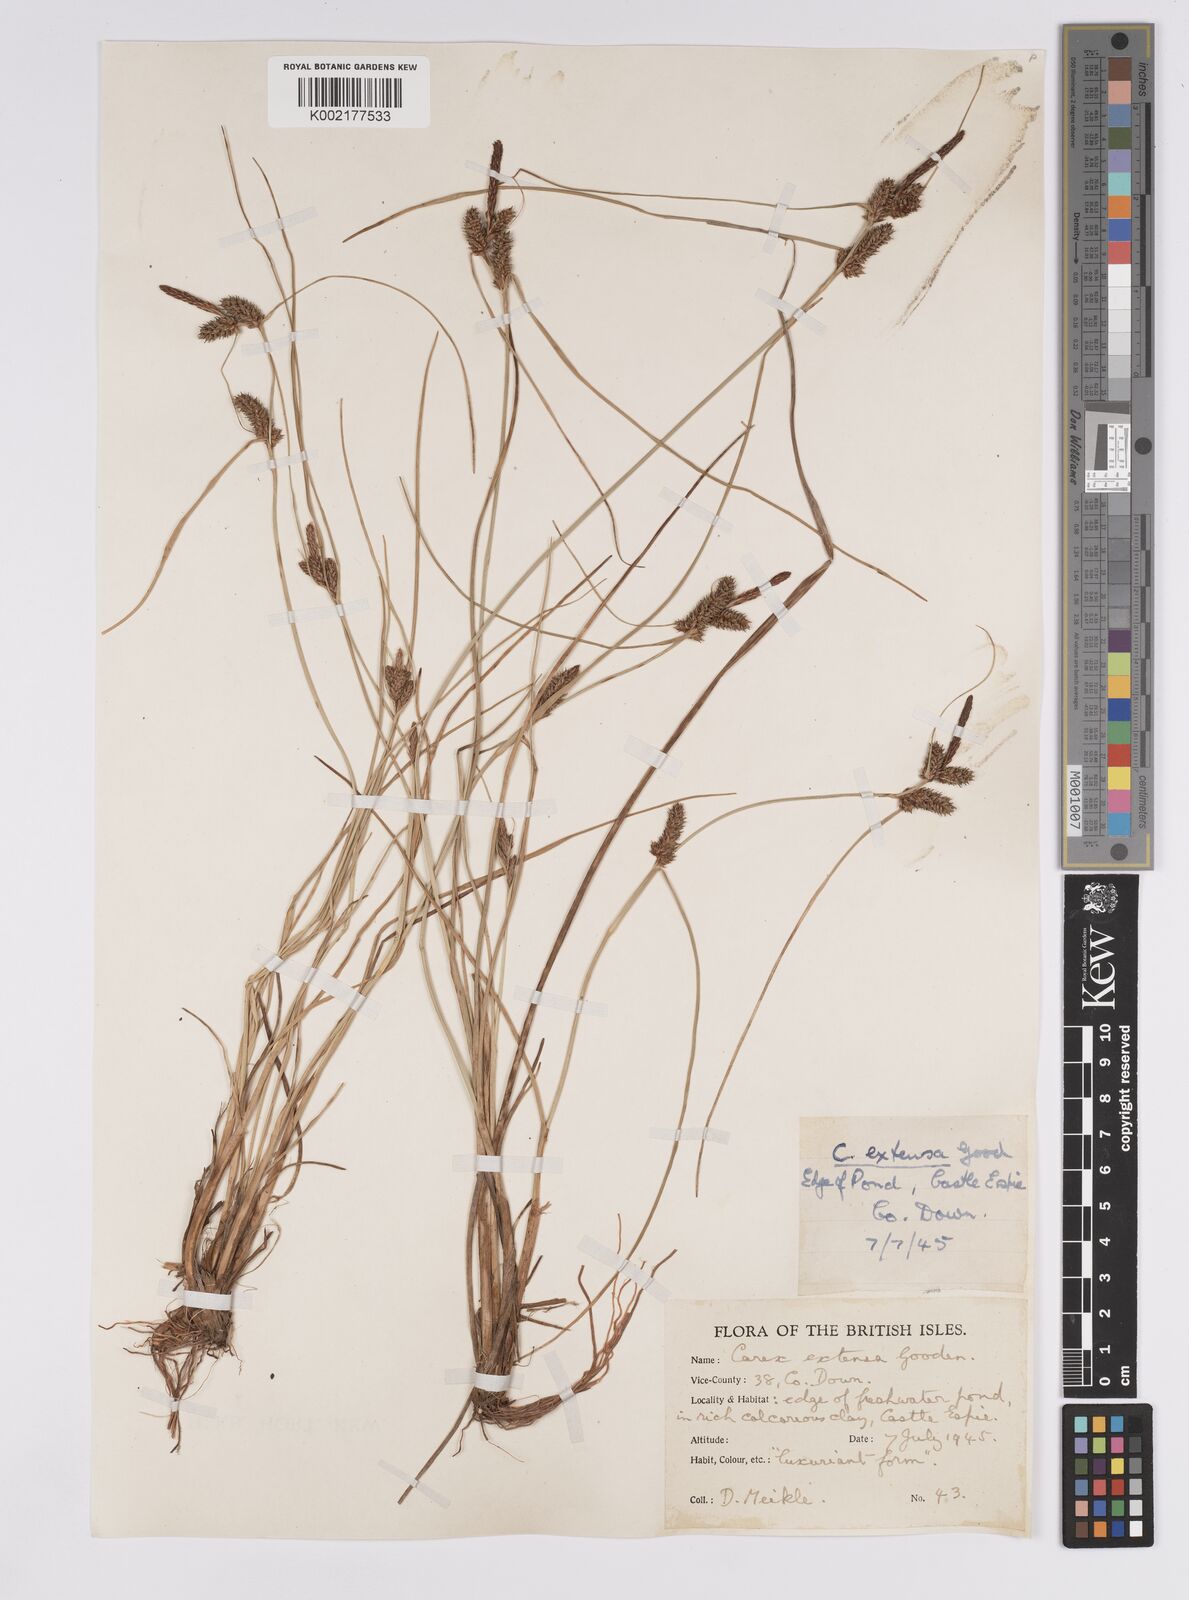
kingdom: Plantae
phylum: Tracheophyta
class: Liliopsida
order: Poales
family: Cyperaceae
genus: Carex
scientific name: Carex extensa
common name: Long-bracted sedge
